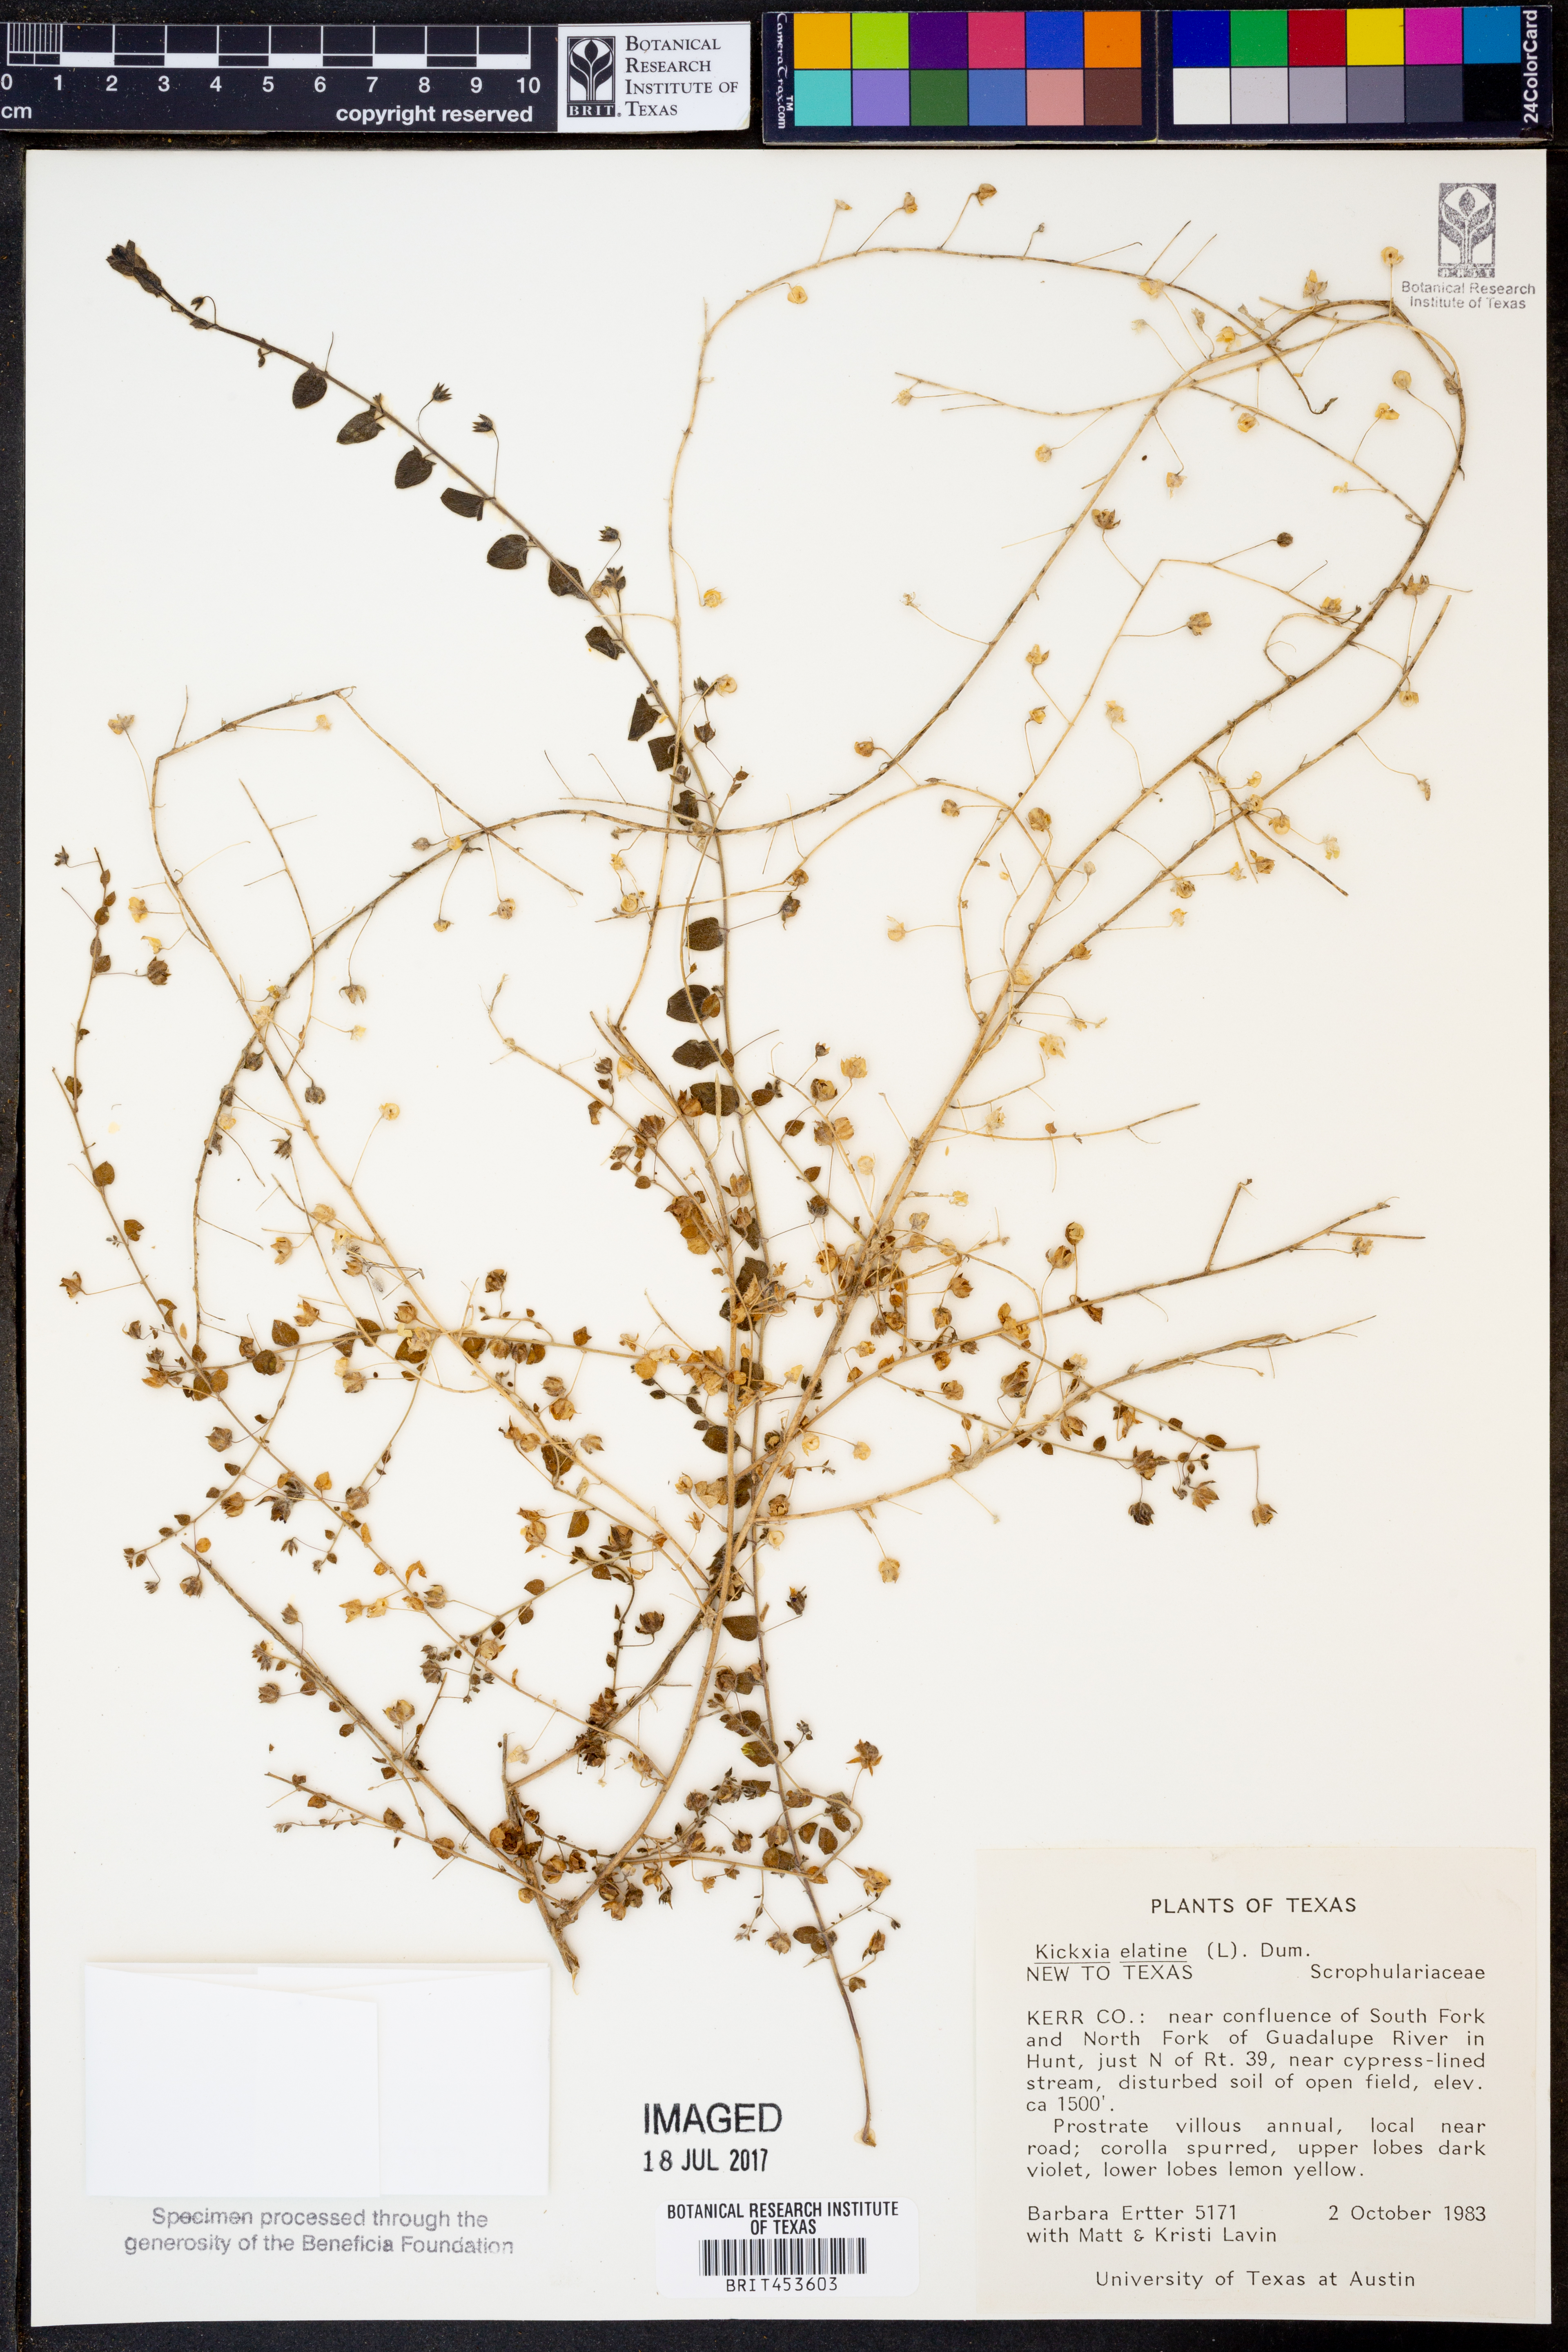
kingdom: Plantae
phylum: Tracheophyta
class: Magnoliopsida
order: Lamiales
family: Plantaginaceae
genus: Kickxia
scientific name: Kickxia elatine
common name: Sharp-leaved fluellen
